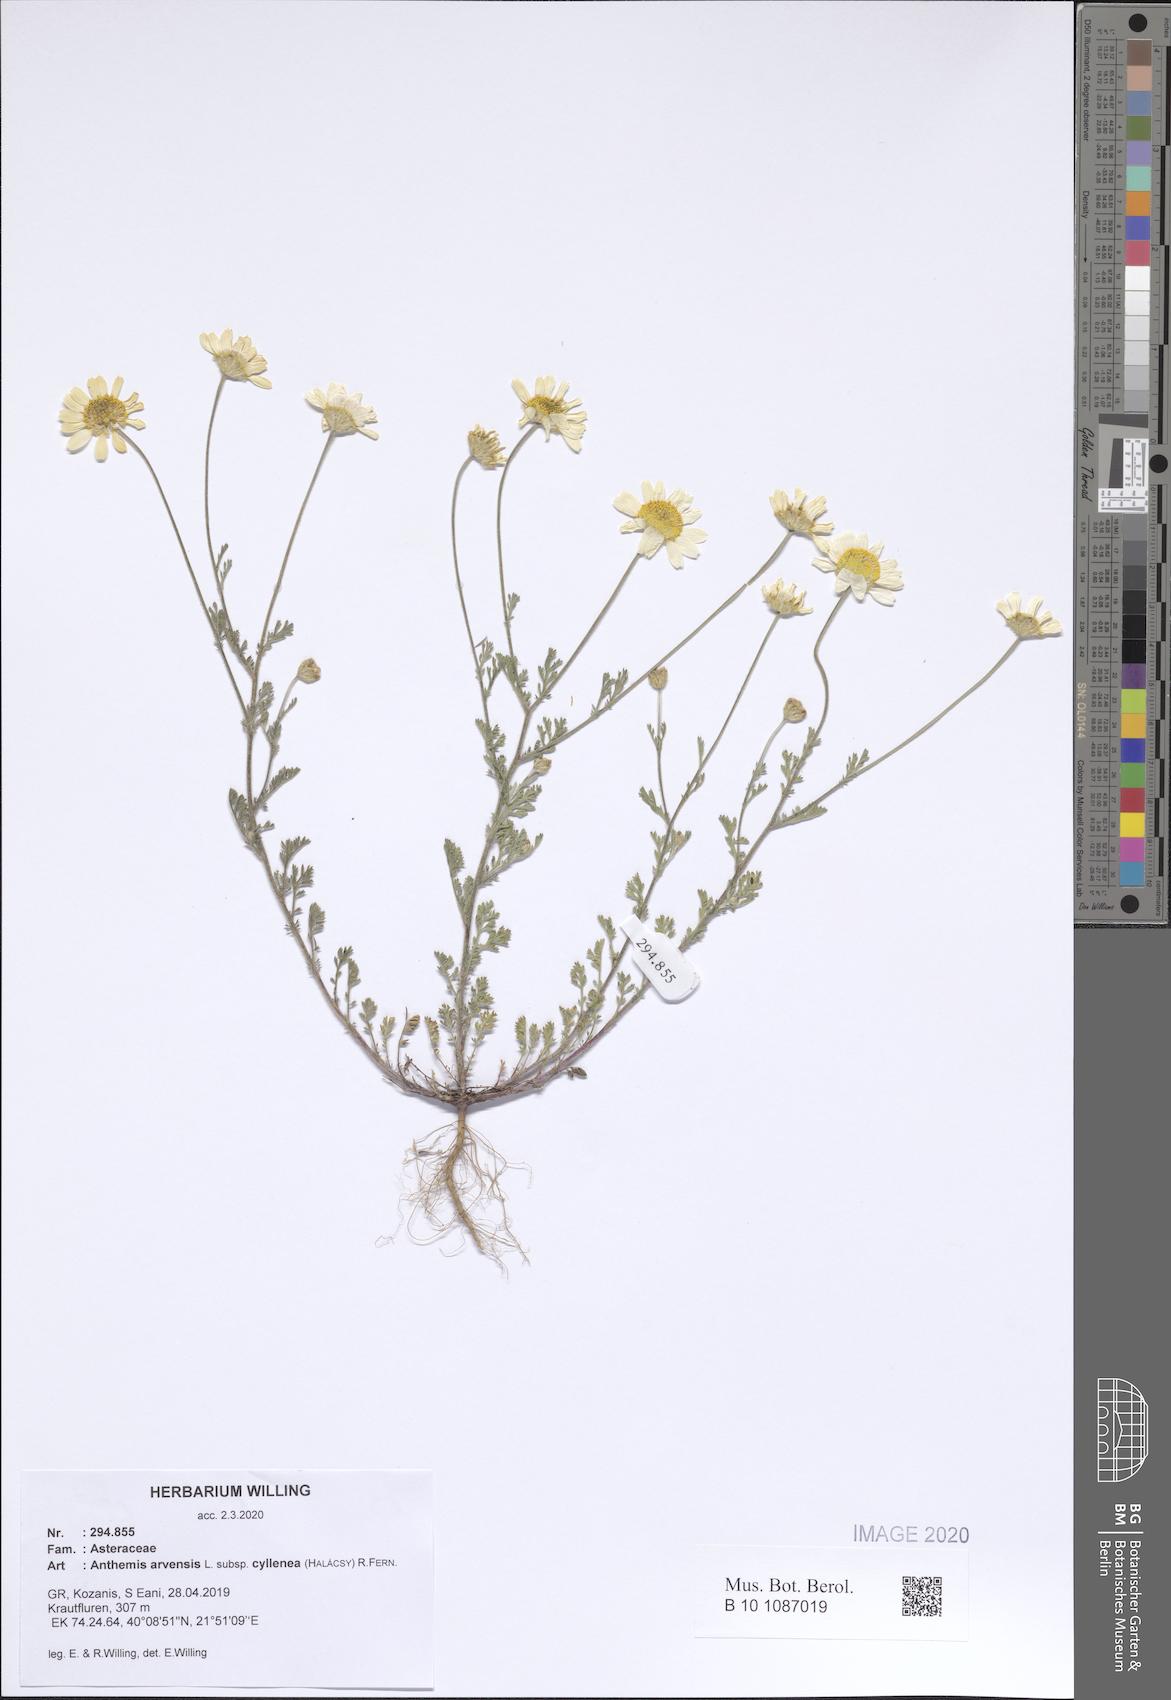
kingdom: Plantae
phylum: Tracheophyta
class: Magnoliopsida
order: Asterales
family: Asteraceae
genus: Anthemis
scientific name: Anthemis arvensis
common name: Corn chamomile
